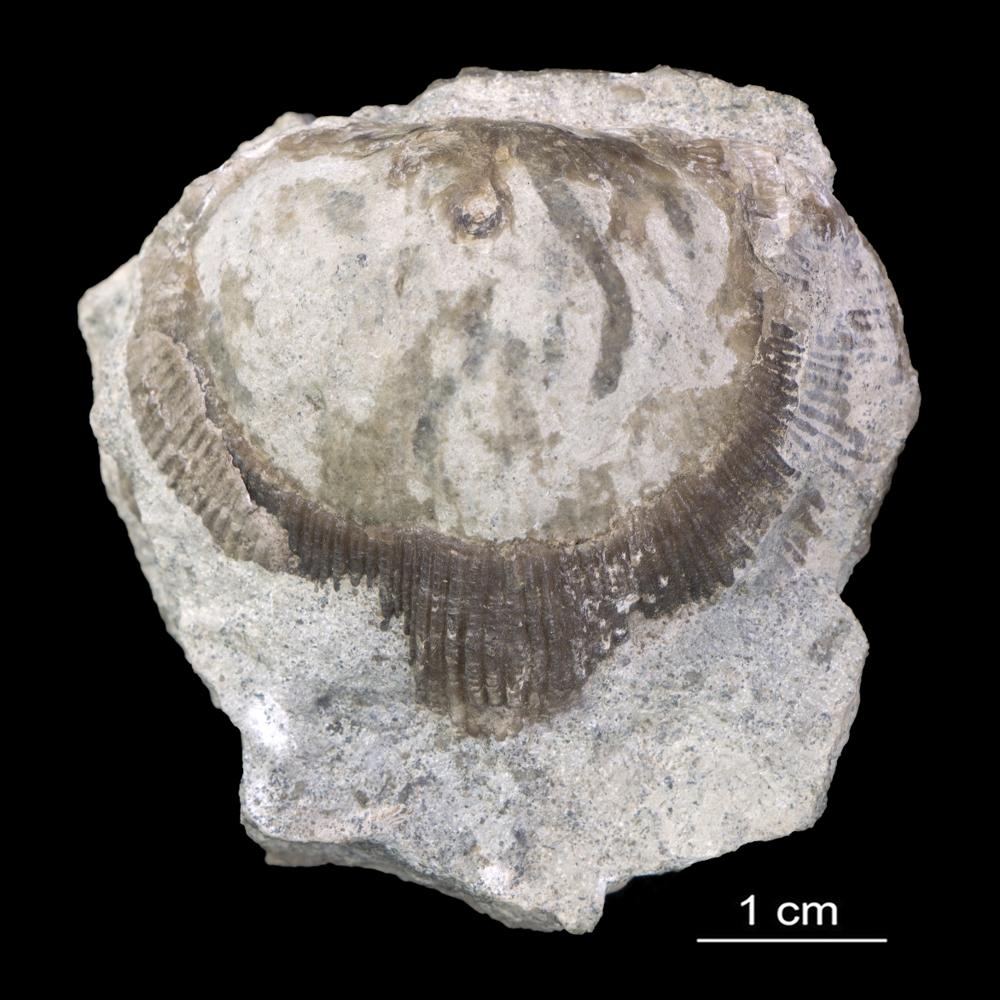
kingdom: Animalia
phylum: Brachiopoda
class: Rhynchonellata
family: Clitambonitidae
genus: Iru
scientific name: Iru Orthisina concava
